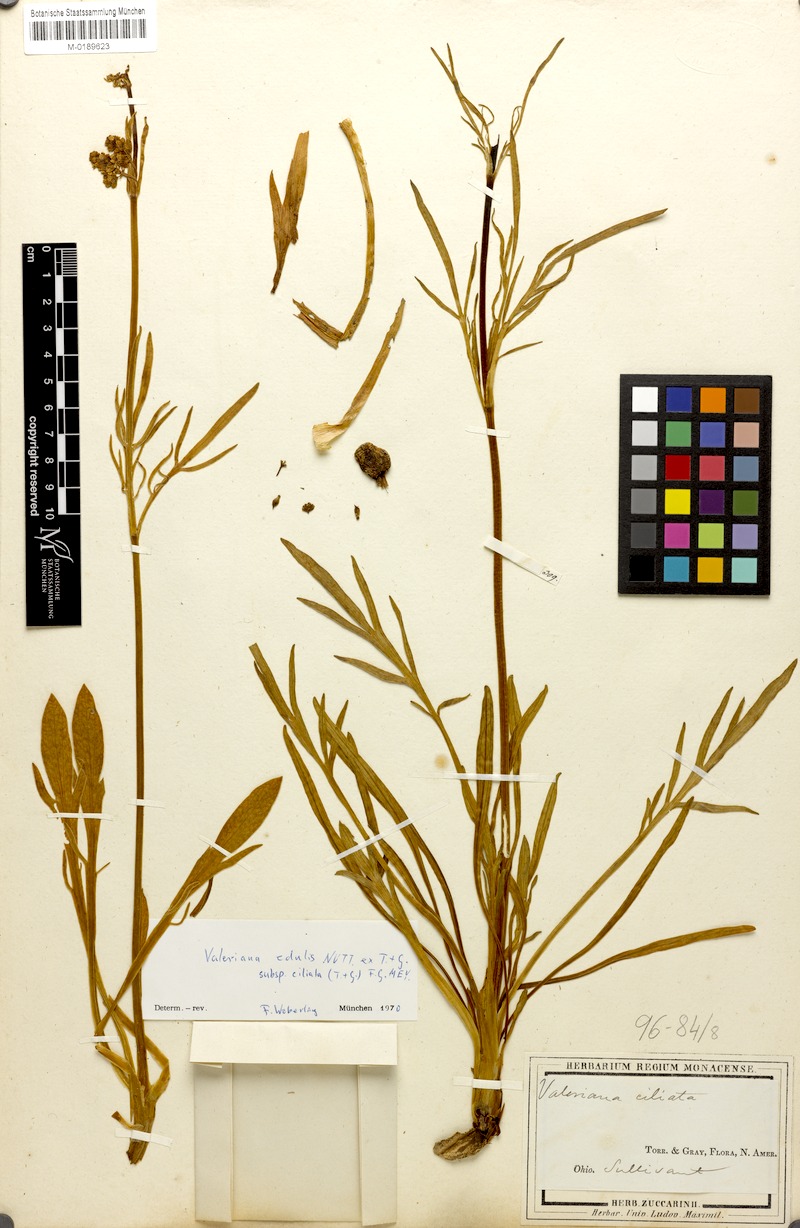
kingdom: Plantae
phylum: Tracheophyta
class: Magnoliopsida
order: Dipsacales
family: Caprifoliaceae
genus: Valeriana
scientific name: Valeriana edulis
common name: Taproot valerian
